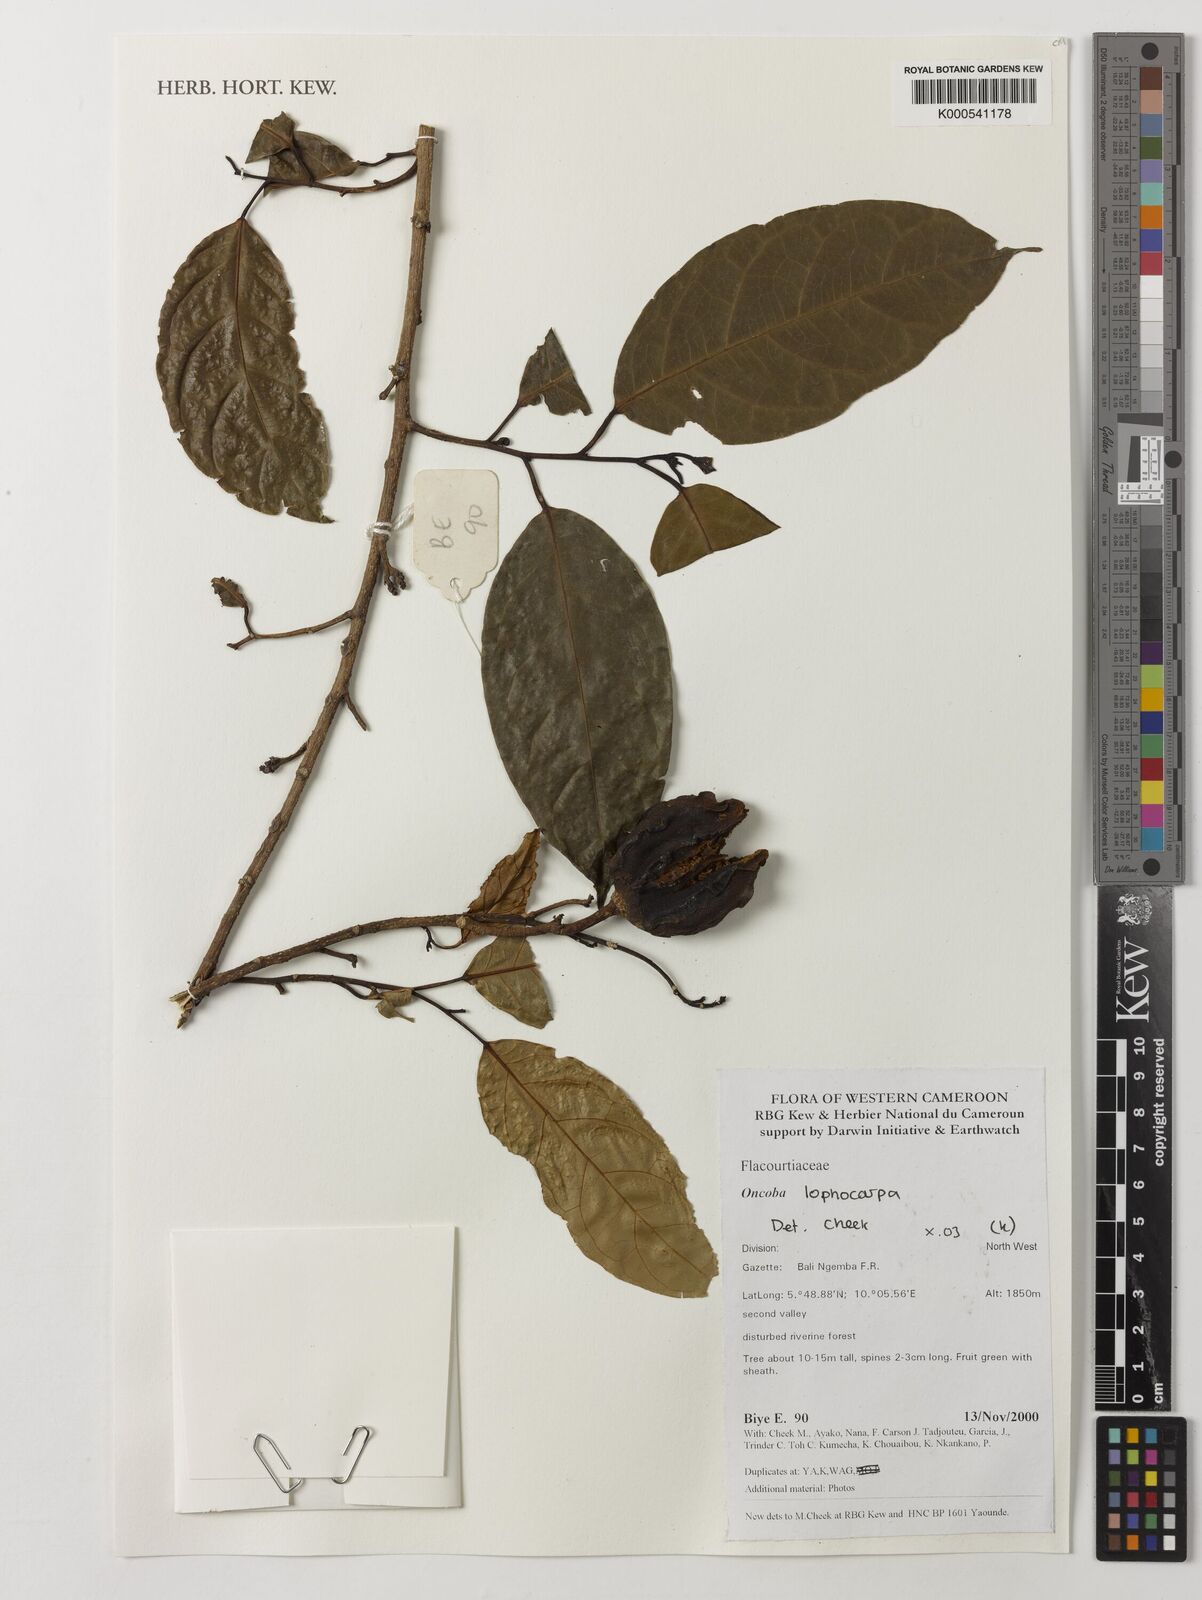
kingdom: Plantae
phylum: Tracheophyta
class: Magnoliopsida
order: Malpighiales
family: Achariaceae
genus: Caloncoba
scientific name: Caloncoba lophocarpa
